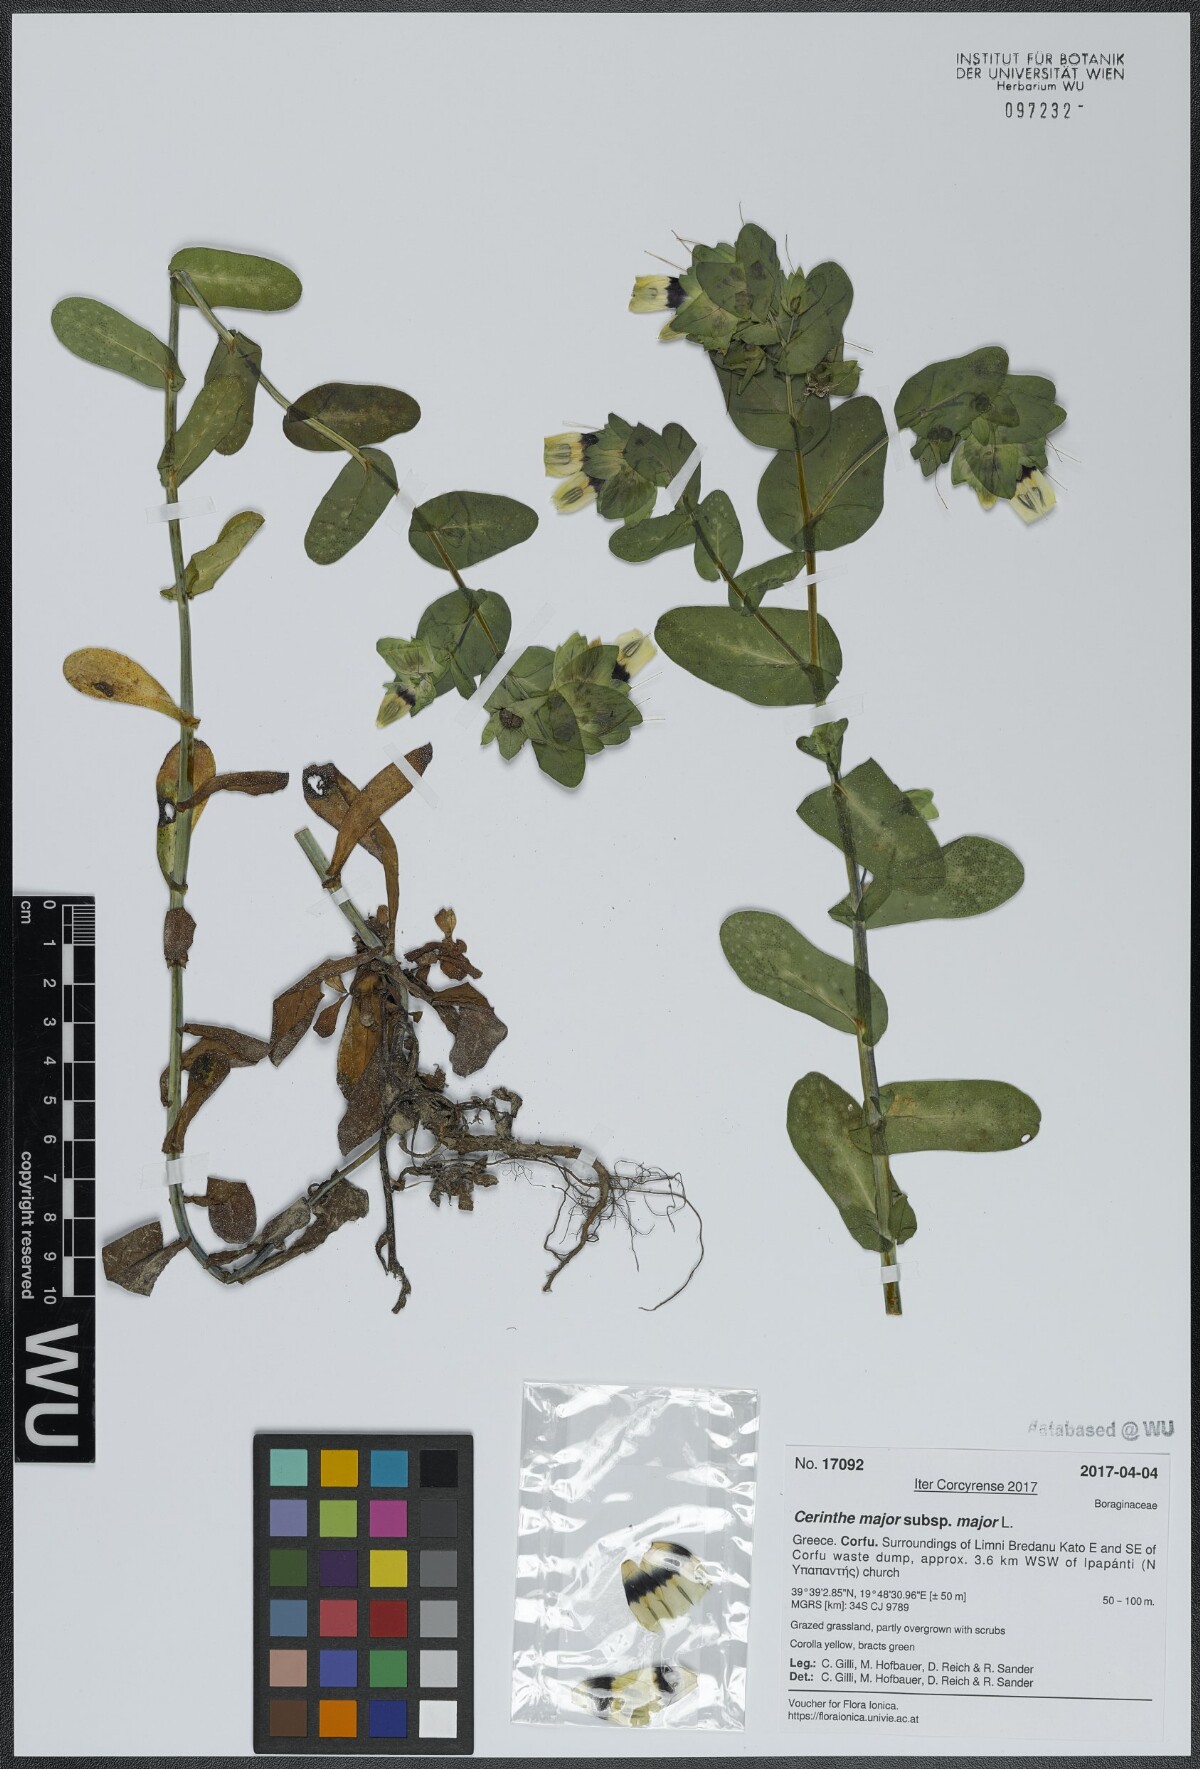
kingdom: Plantae
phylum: Tracheophyta
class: Magnoliopsida
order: Boraginales
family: Boraginaceae
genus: Cerinthe
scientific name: Cerinthe major
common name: Greater honeywort
